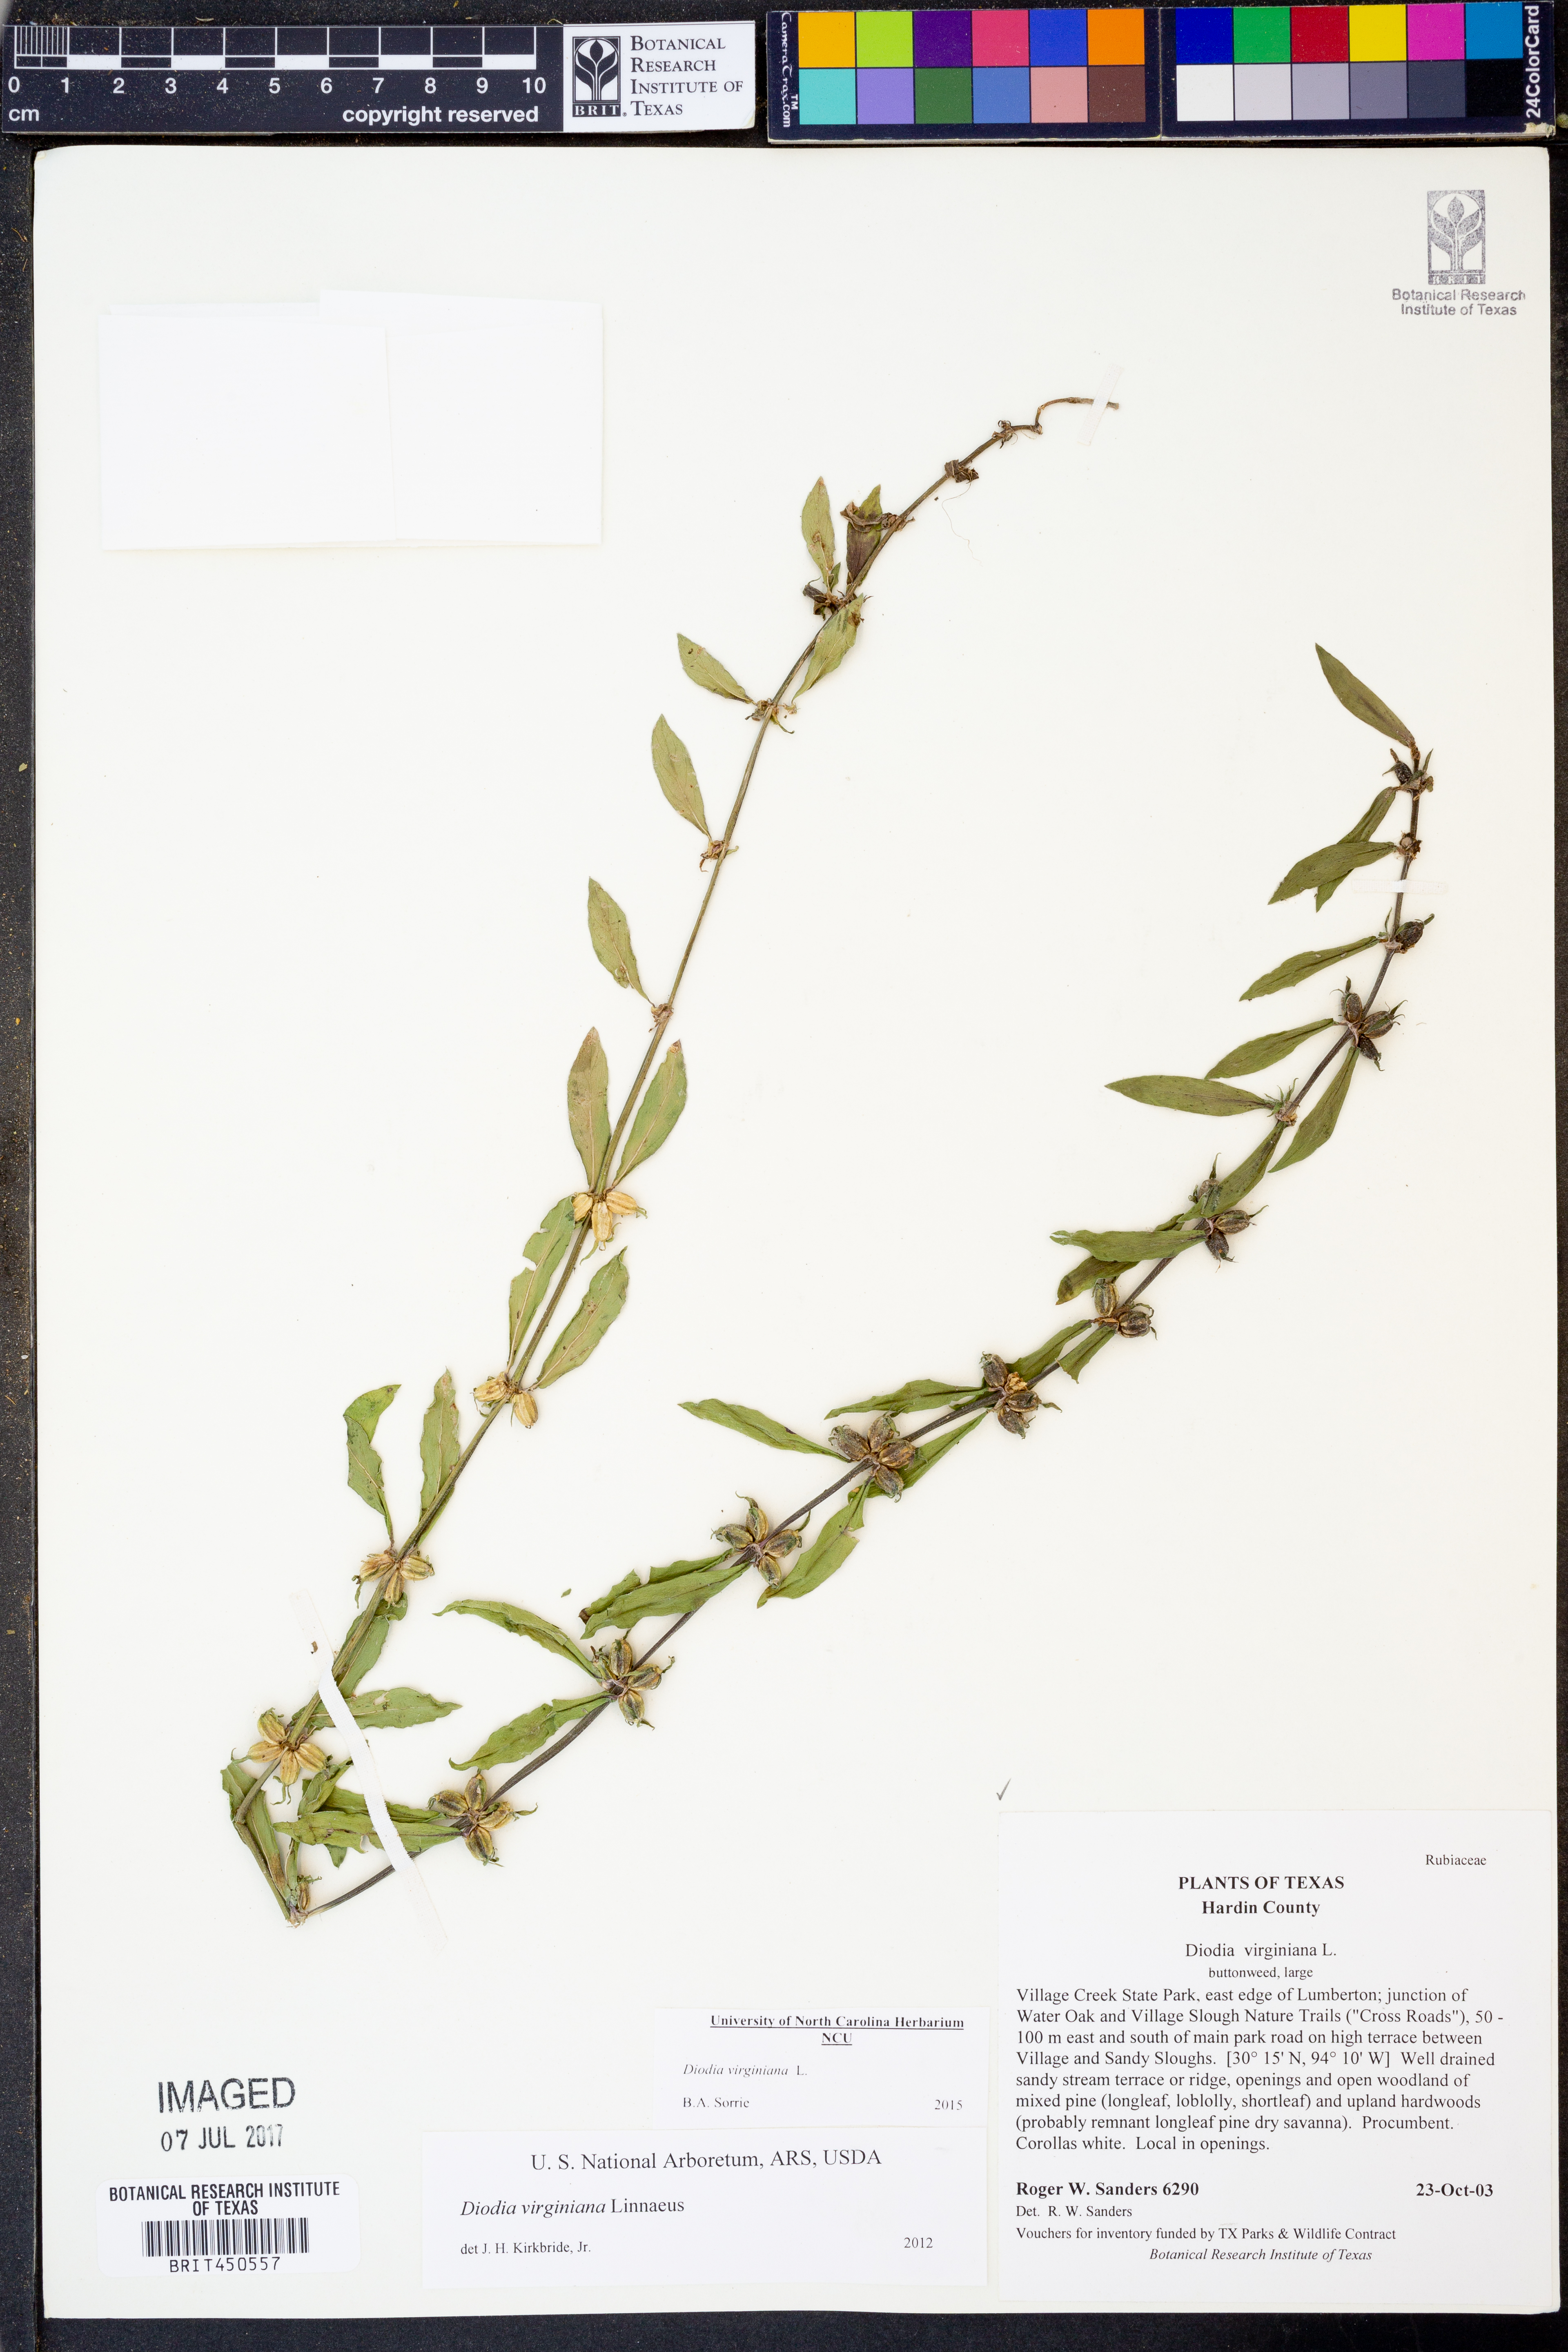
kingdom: Plantae
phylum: Tracheophyta
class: Magnoliopsida
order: Gentianales
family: Rubiaceae
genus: Diodia
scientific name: Diodia virginiana
